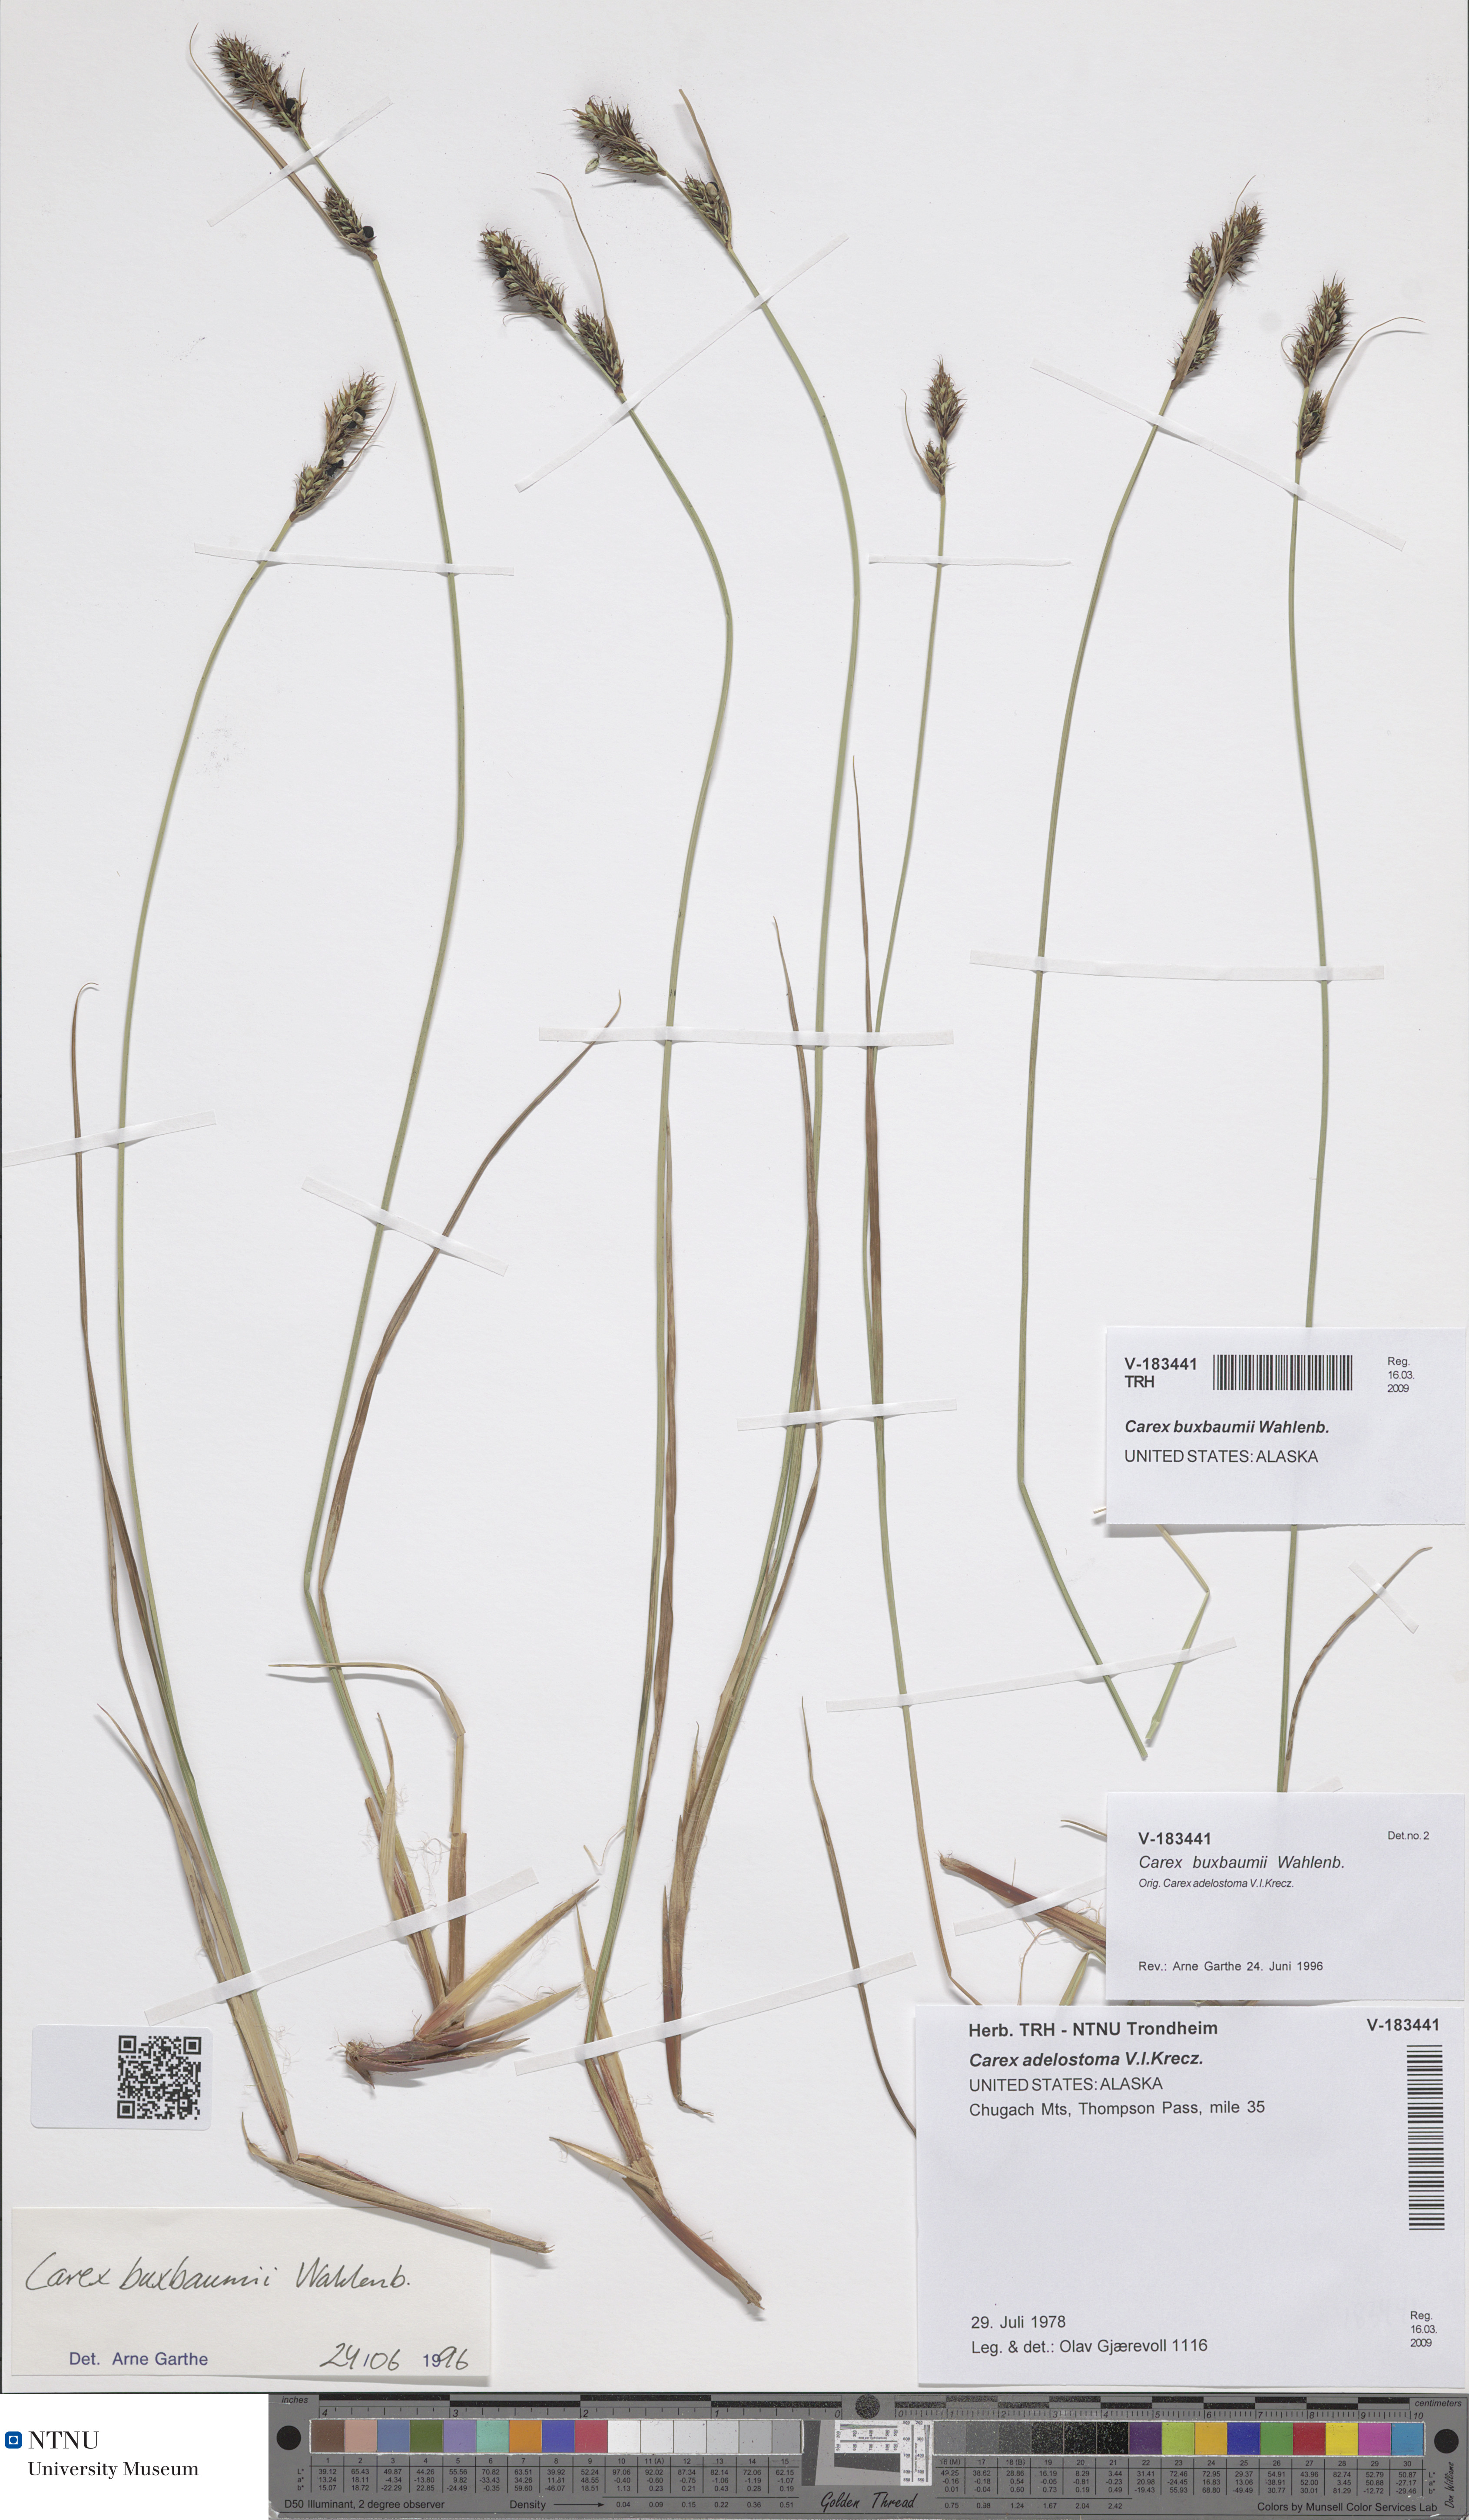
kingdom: Plantae
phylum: Tracheophyta
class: Liliopsida
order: Poales
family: Cyperaceae
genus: Carex
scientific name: Carex buxbaumii
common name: Club sedge
